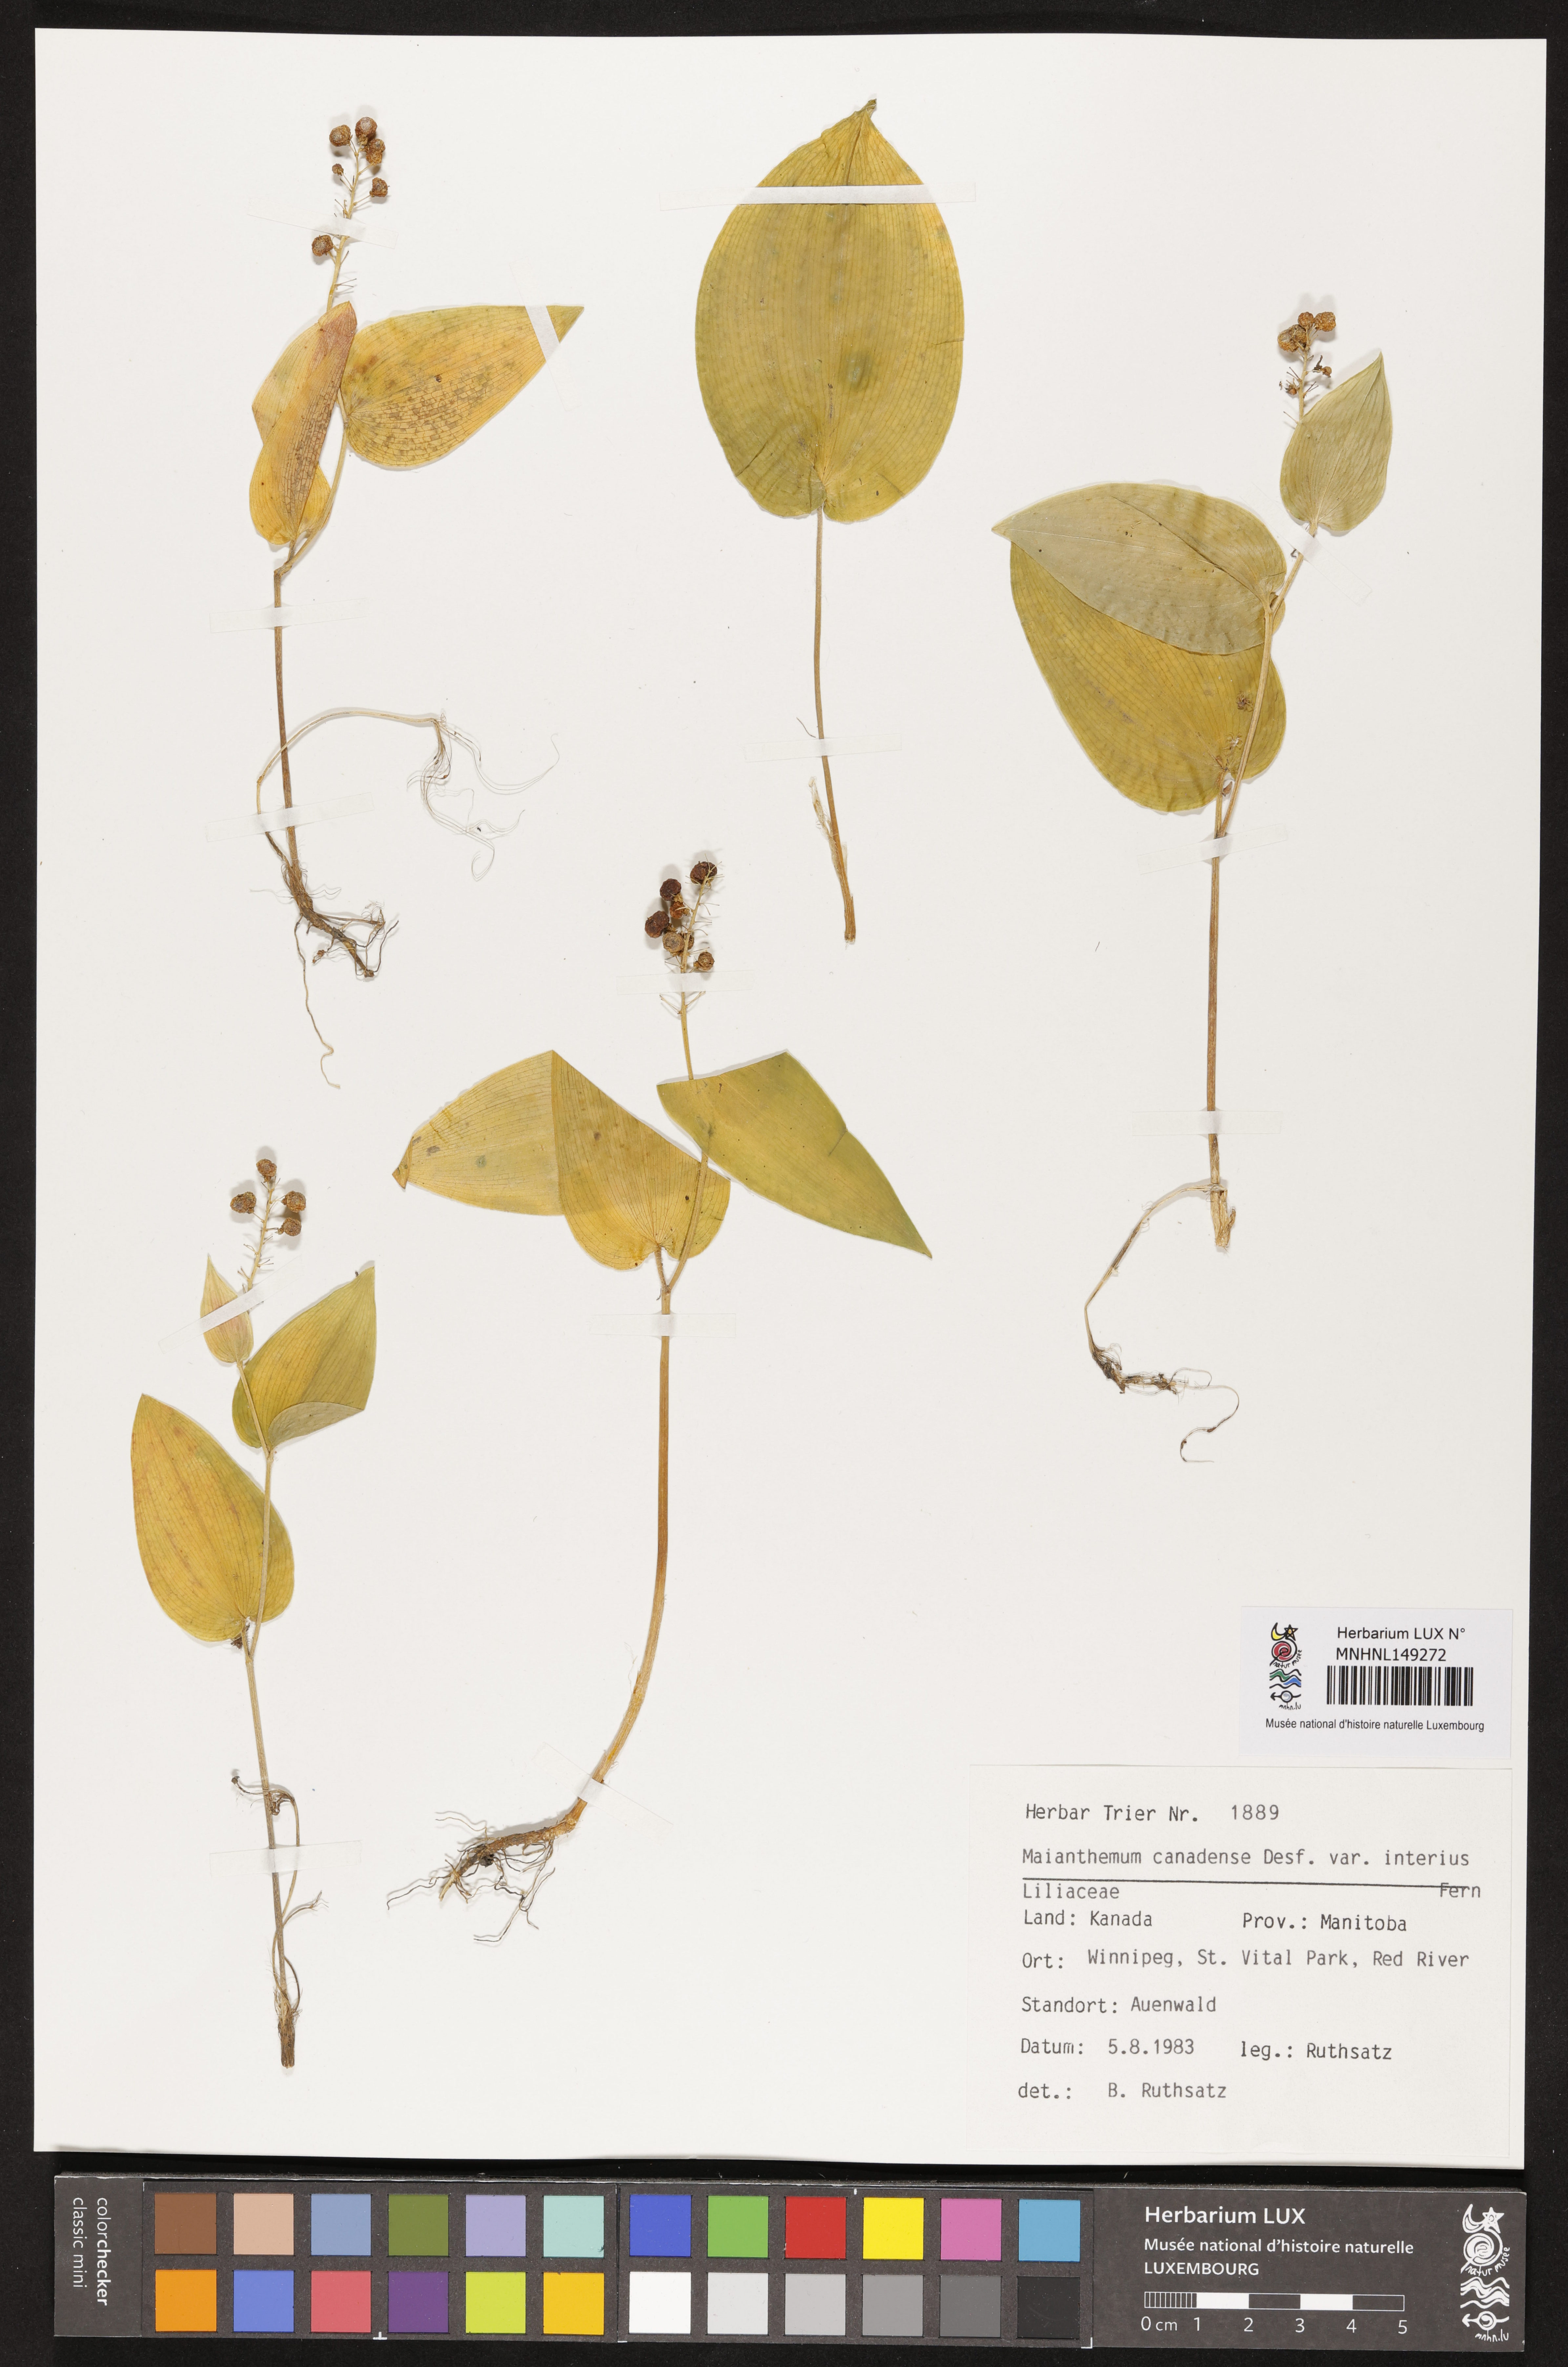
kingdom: Plantae
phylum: Tracheophyta
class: Liliopsida
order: Asparagales
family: Asparagaceae
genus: Maianthemum
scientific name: Maianthemum canadense
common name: False lily-of-the-valley
